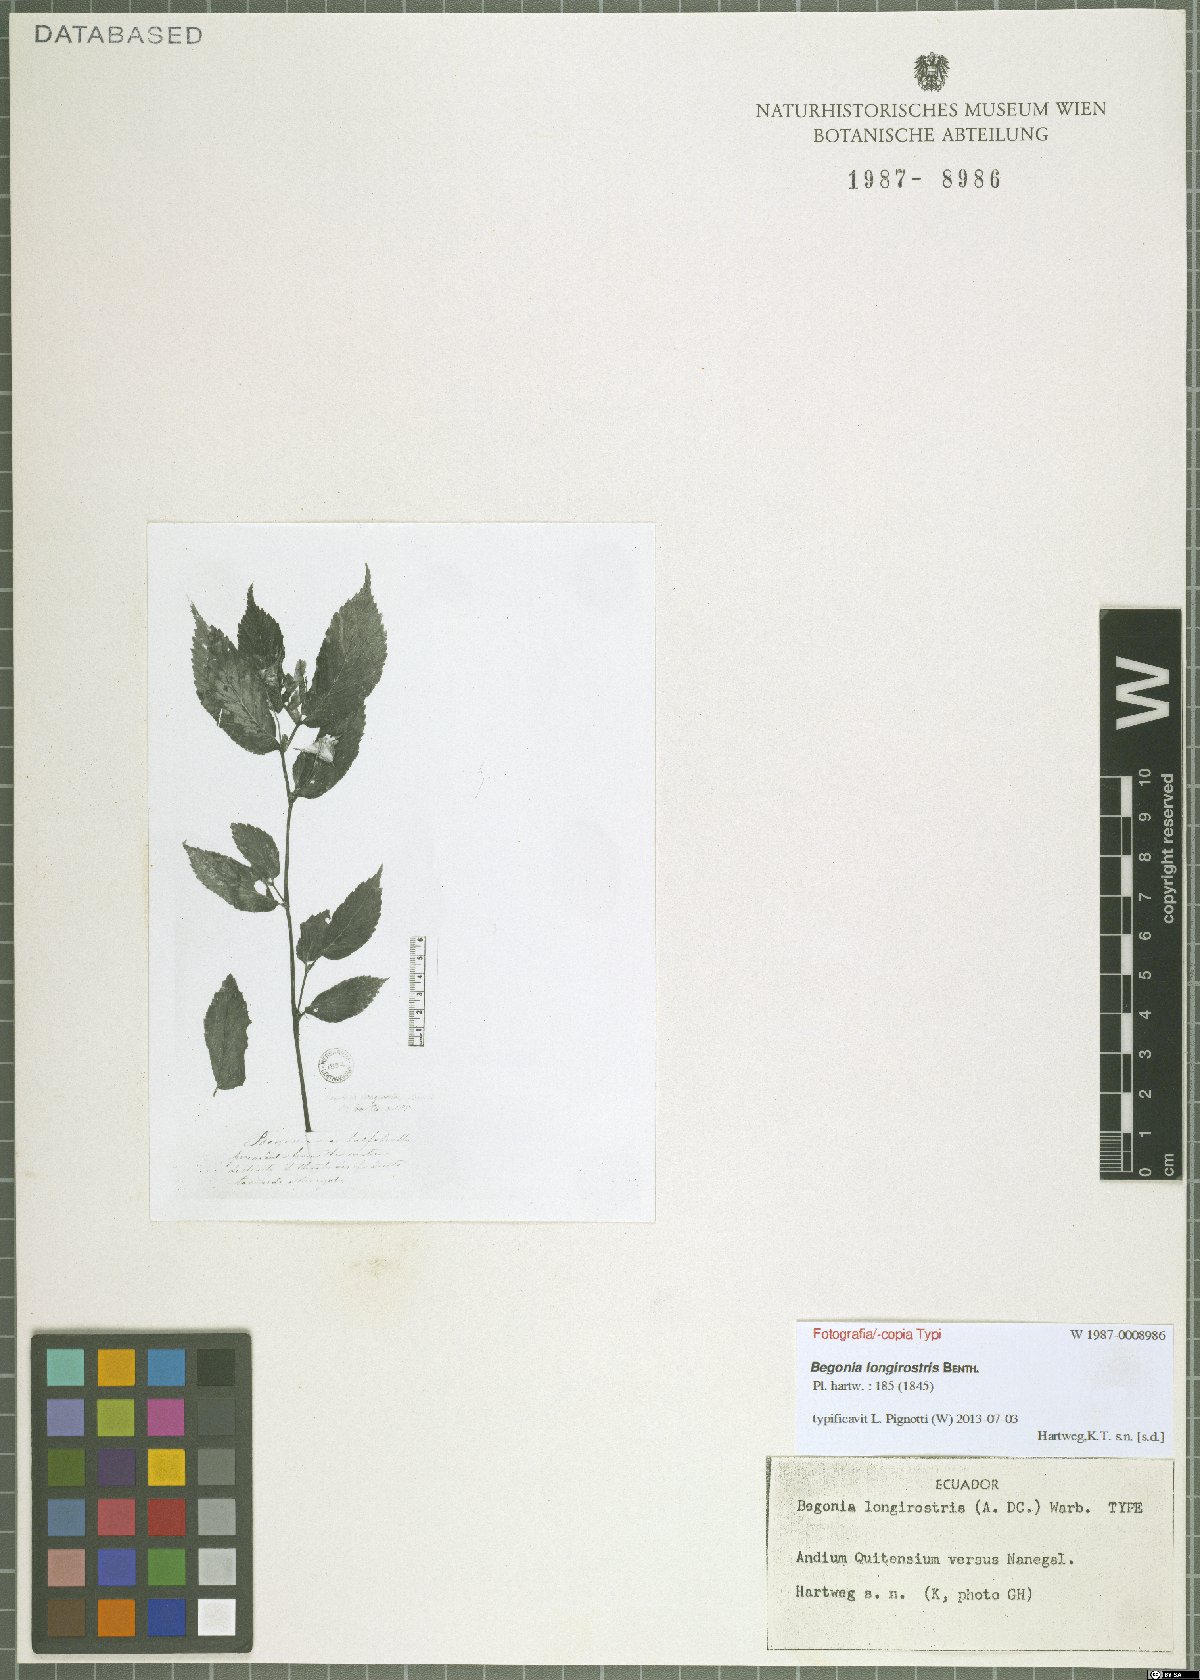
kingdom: Plantae
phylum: Tracheophyta
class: Magnoliopsida
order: Cucurbitales
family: Begoniaceae
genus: Begonia
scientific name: Begonia longirostris
